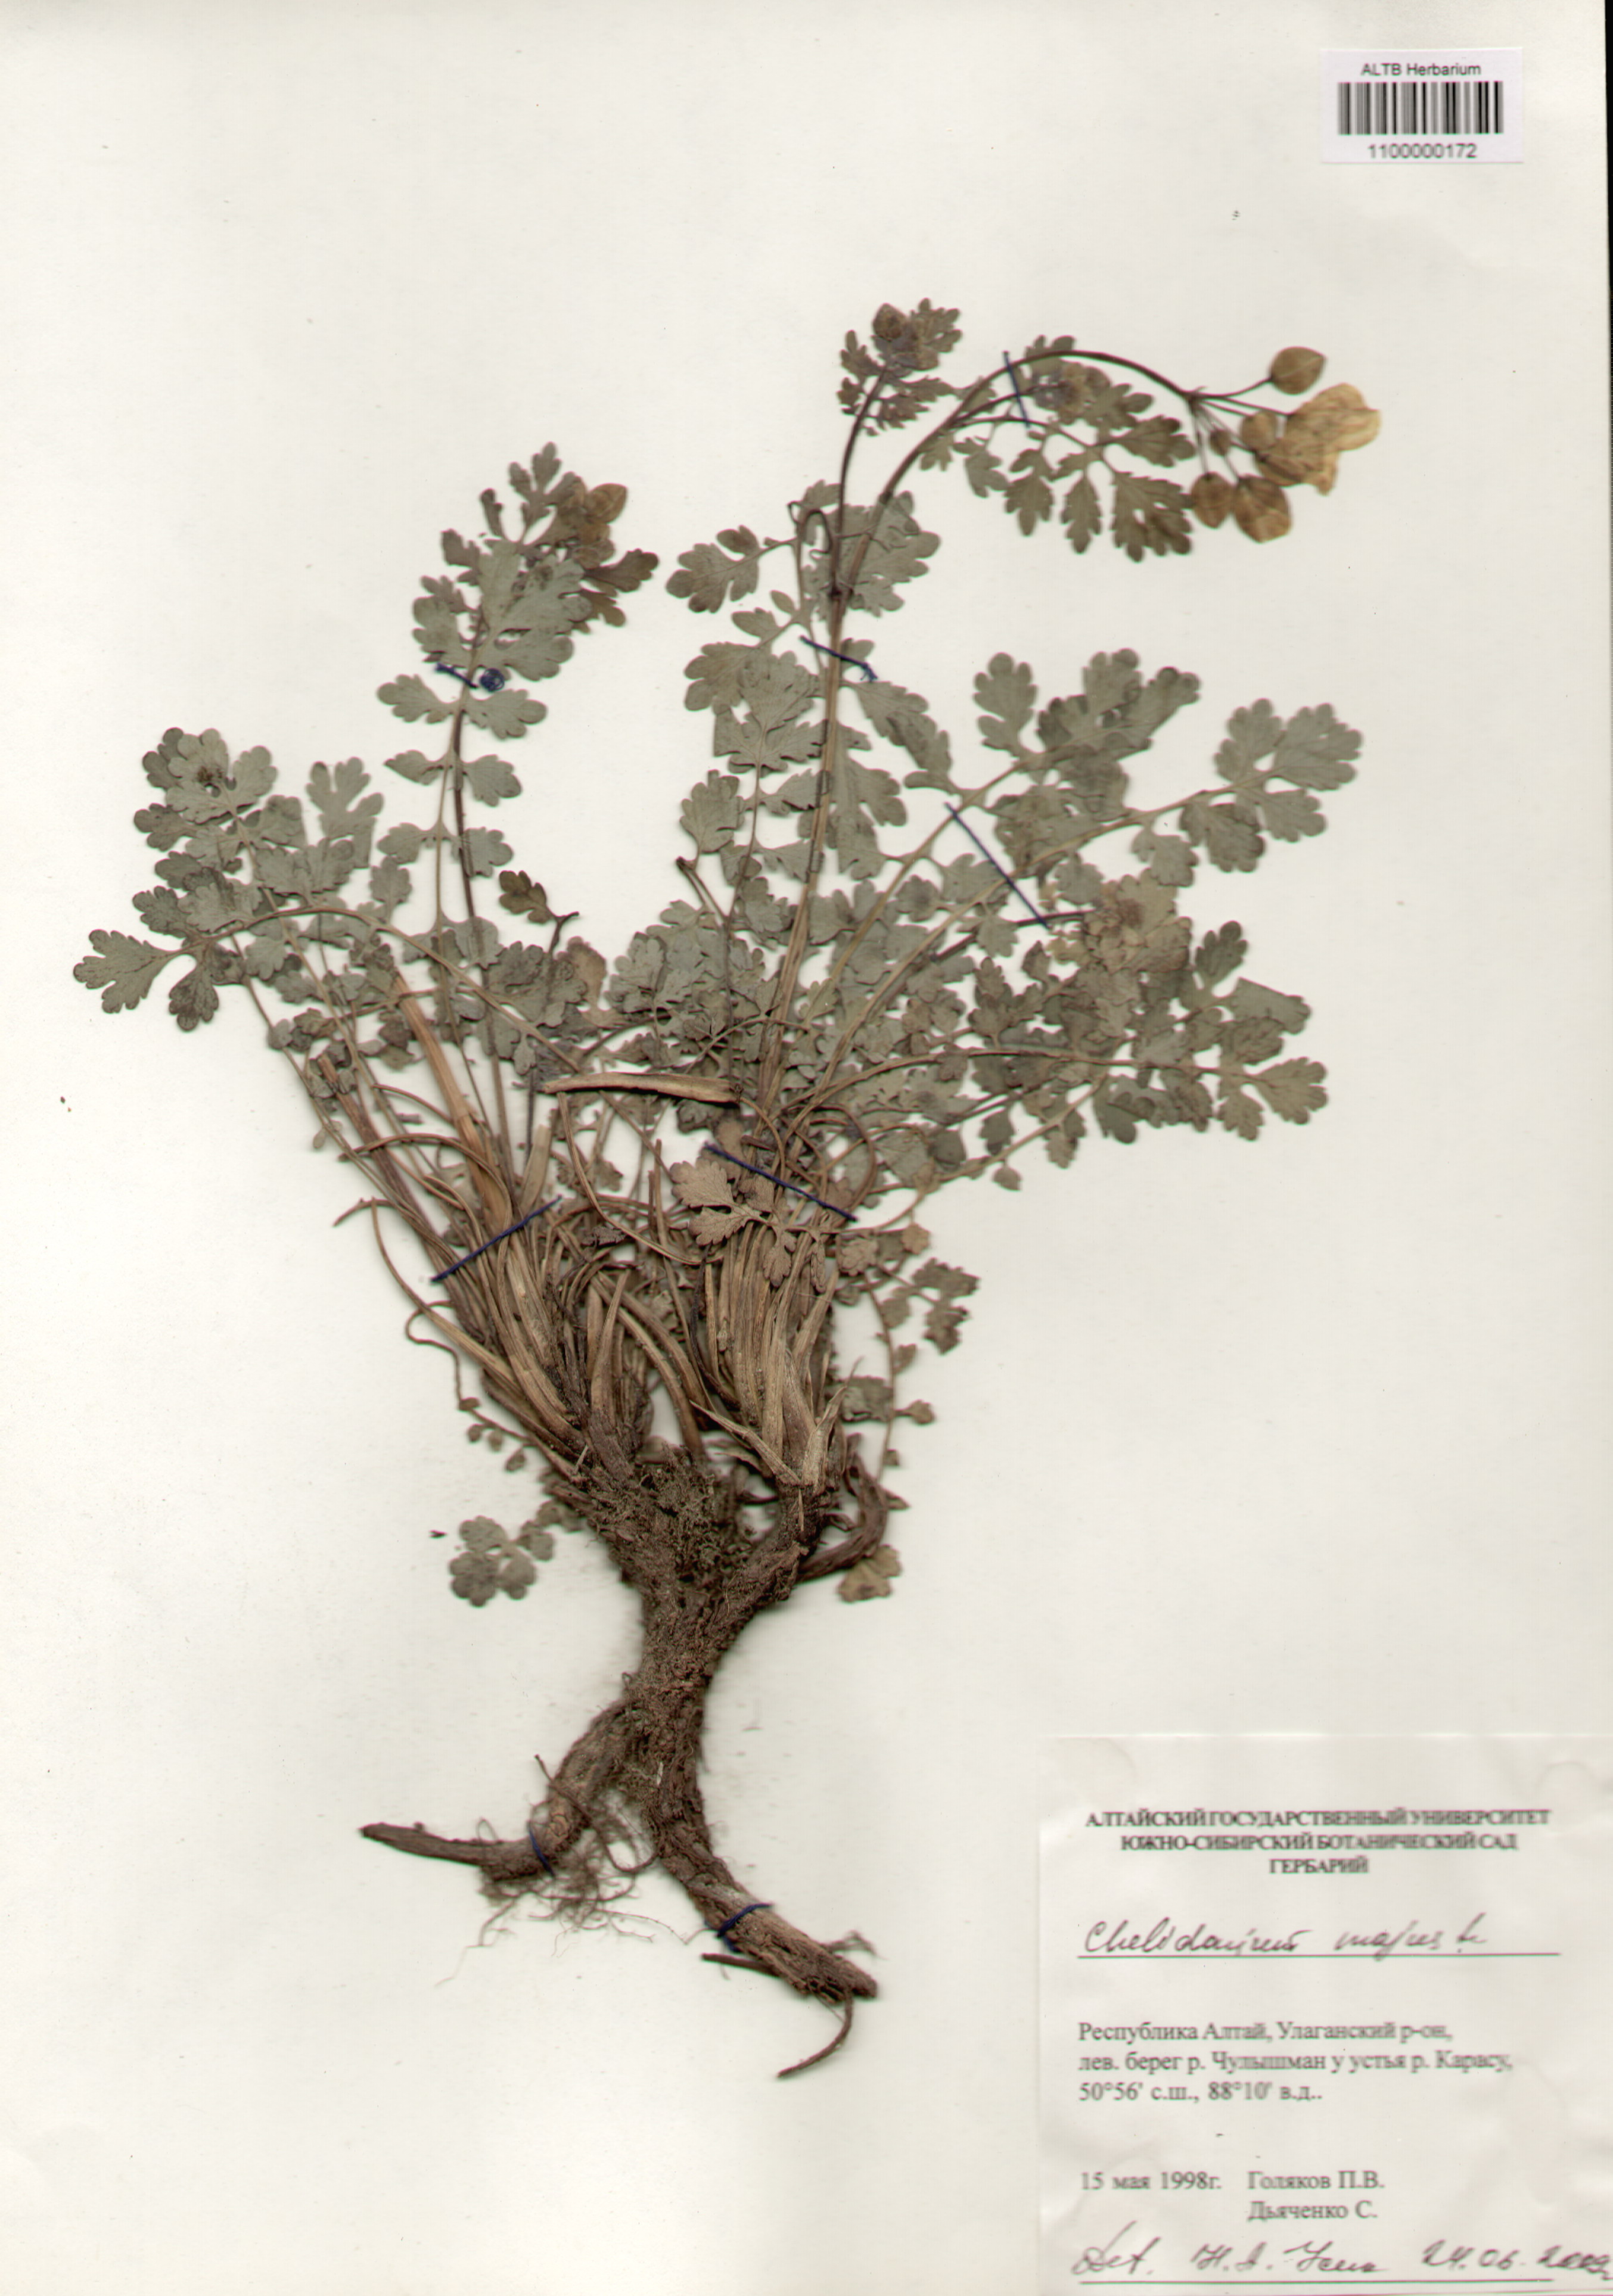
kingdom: Plantae
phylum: Tracheophyta
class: Magnoliopsida
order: Ranunculales
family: Papaveraceae
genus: Chelidonium
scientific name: Chelidonium majus
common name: Greater celandine
